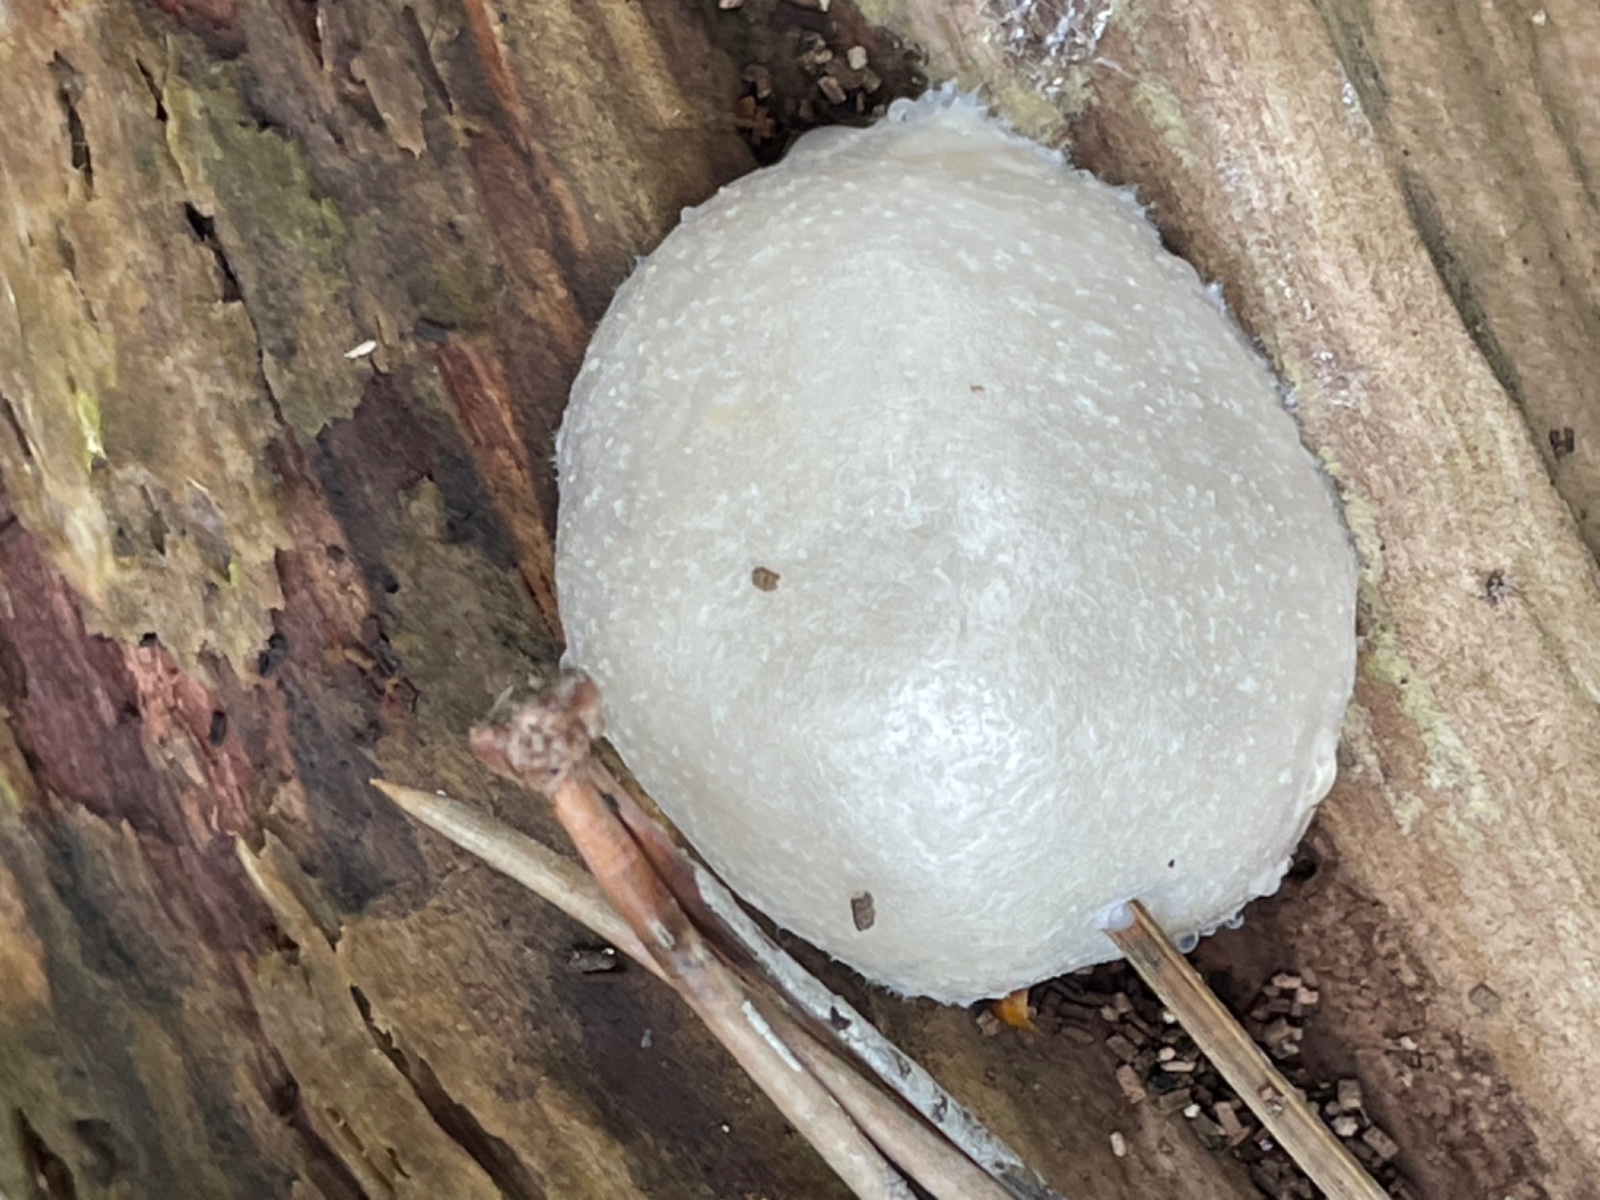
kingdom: Protozoa
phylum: Mycetozoa
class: Myxomycetes
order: Cribrariales
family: Tubiferaceae
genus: Reticularia
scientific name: Reticularia lycoperdon
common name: skinnende støvpude
